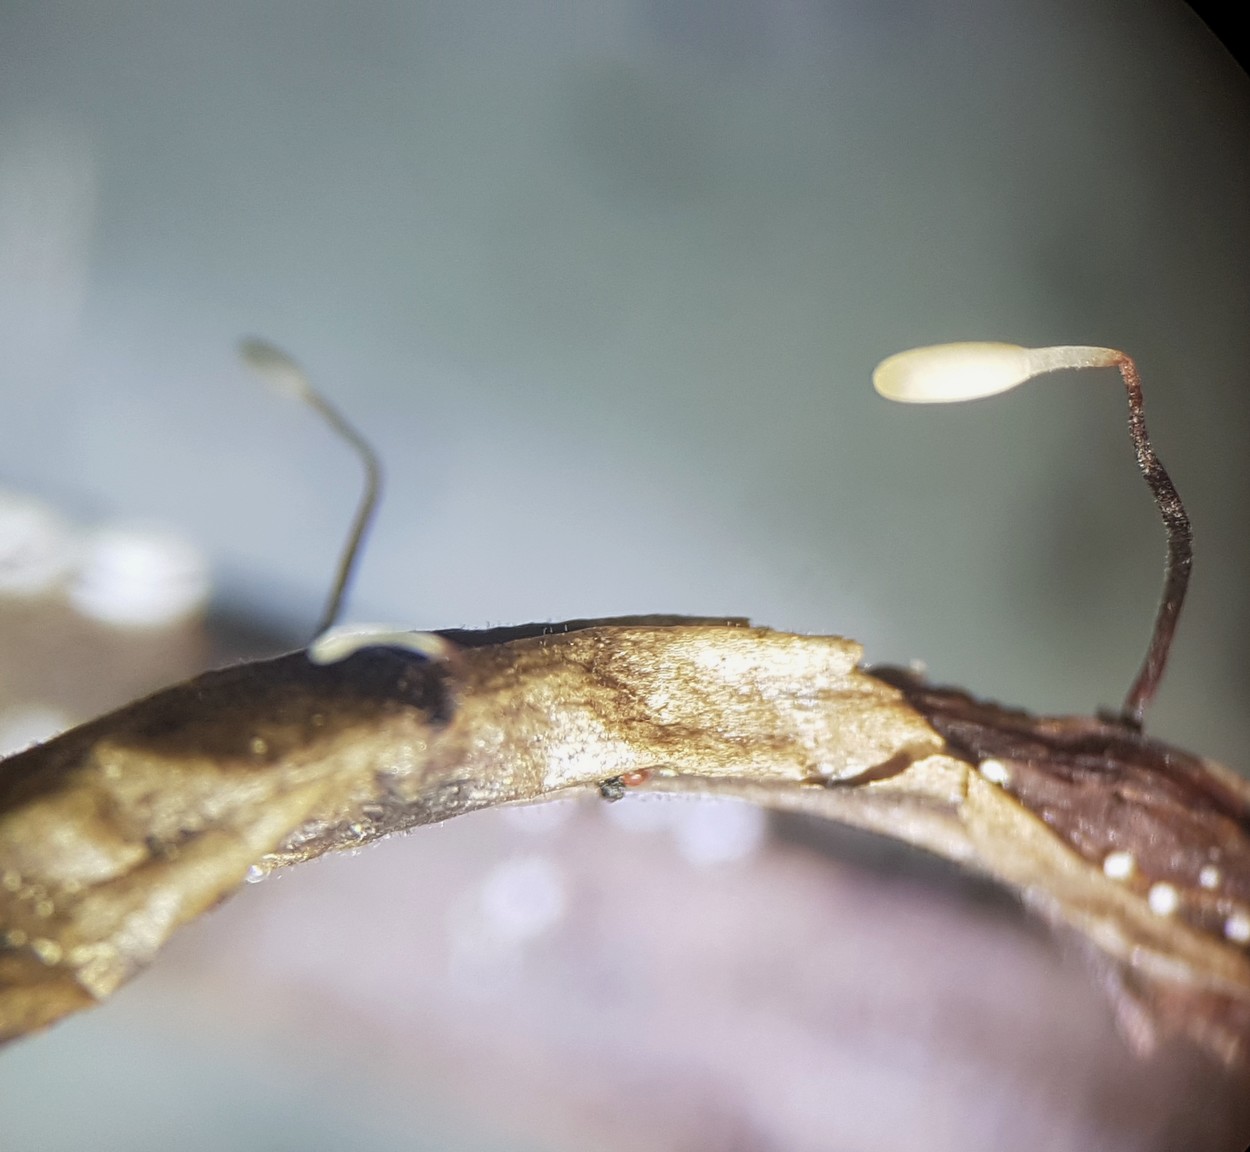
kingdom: Fungi
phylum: Basidiomycota
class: Agaricomycetes
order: Agaricales
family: Typhulaceae
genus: Typhula
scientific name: Typhula erythropus
